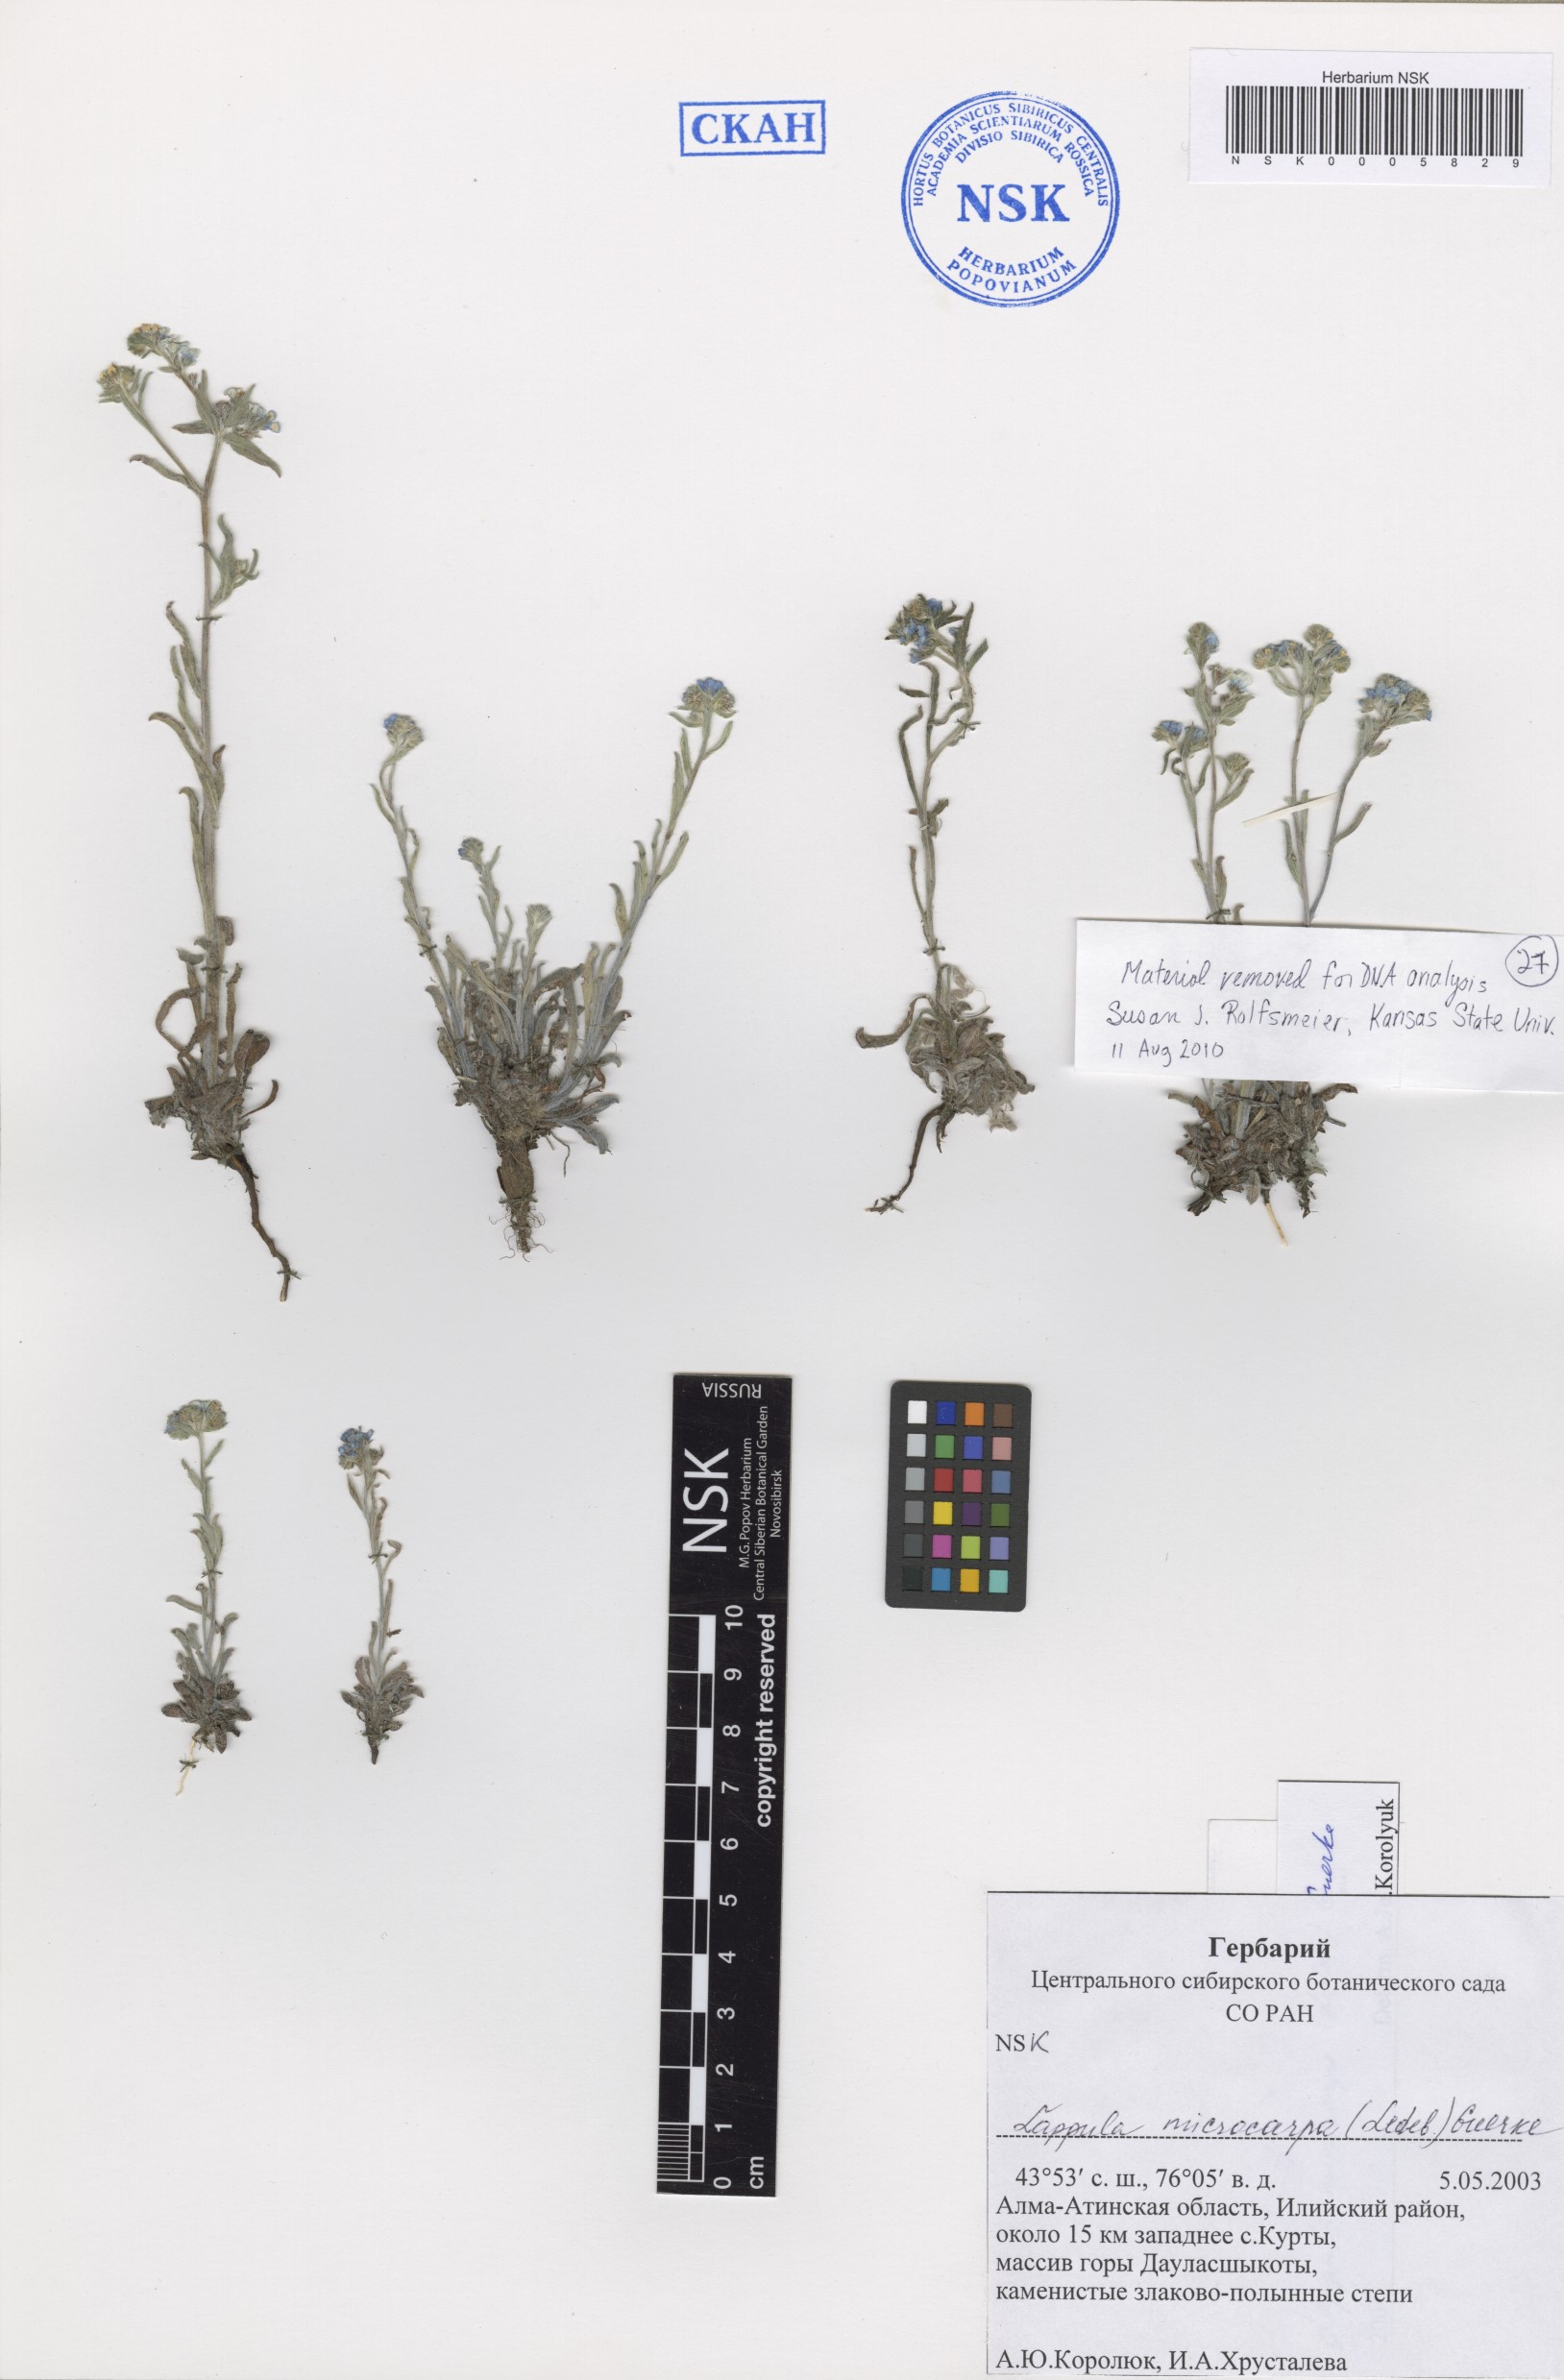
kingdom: Plantae
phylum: Tracheophyta
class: Magnoliopsida
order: Boraginales
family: Boraginaceae
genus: Lappula
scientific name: Lappula microcarpa
